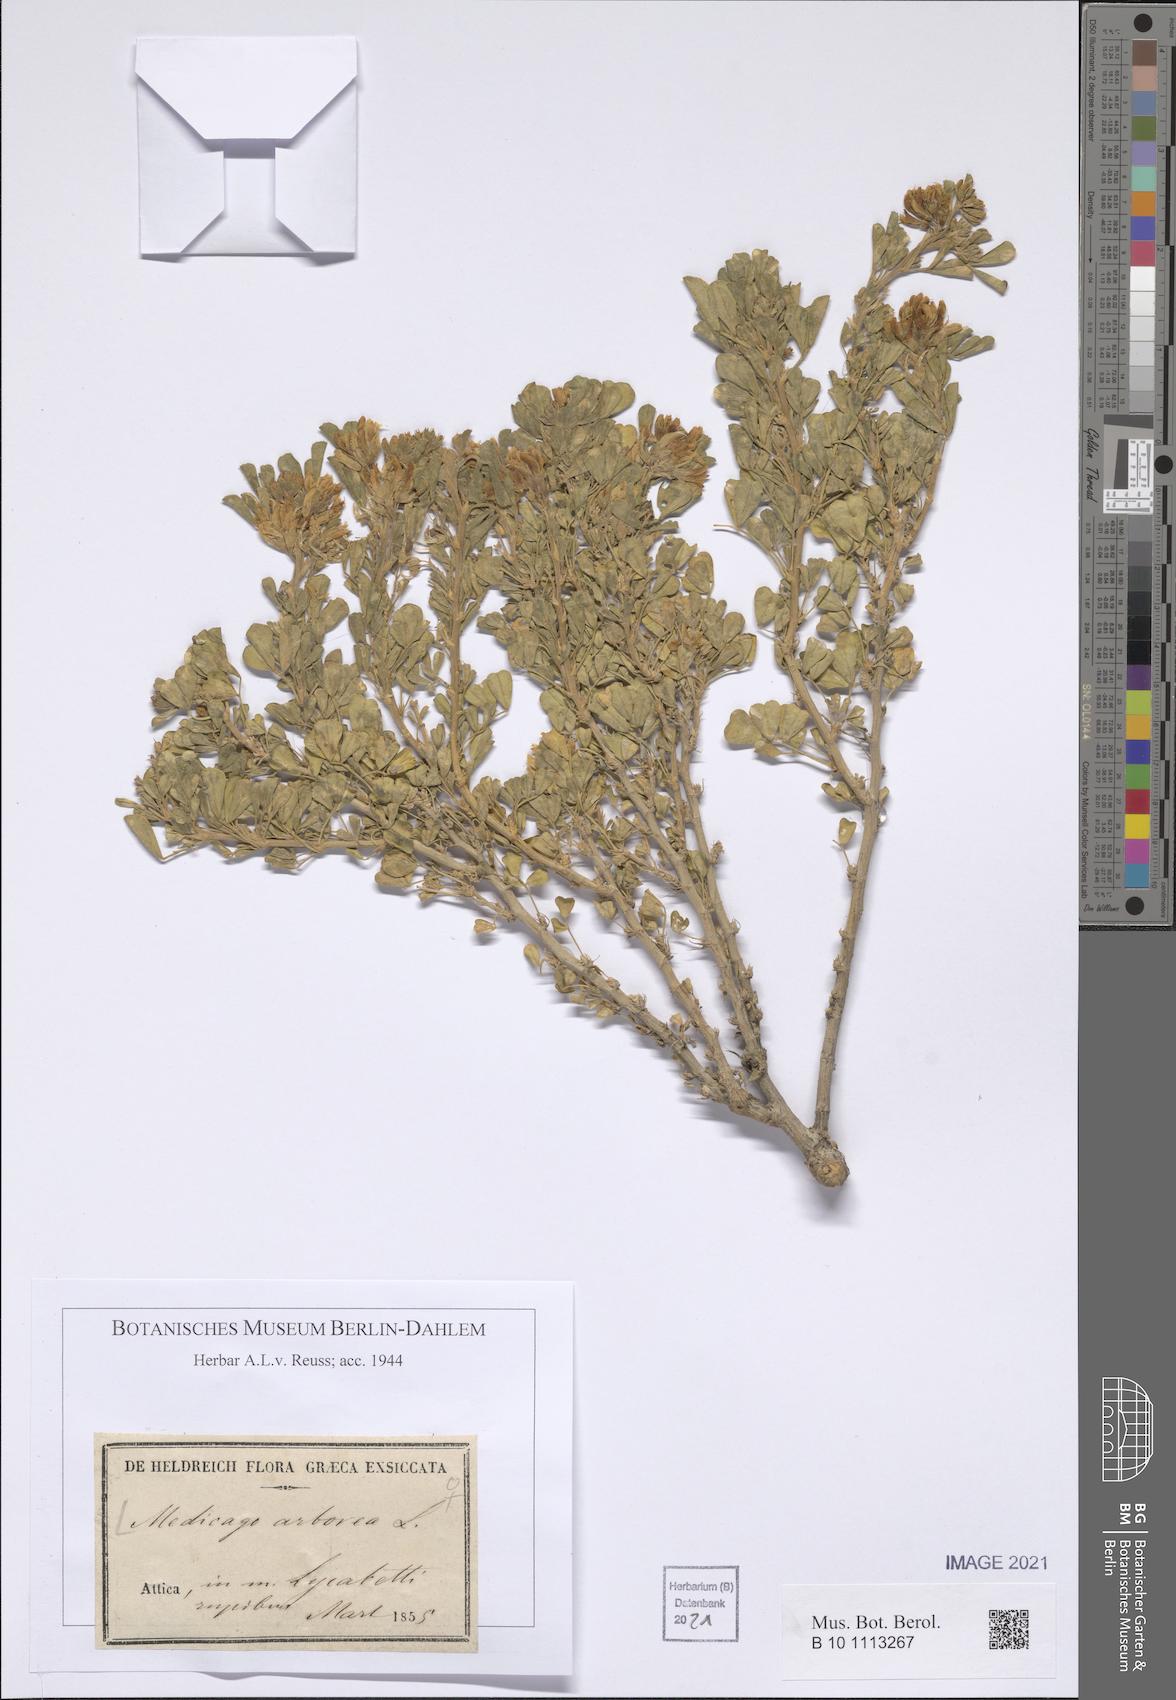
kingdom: Plantae
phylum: Tracheophyta
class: Magnoliopsida
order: Fabales
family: Fabaceae
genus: Medicago
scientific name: Medicago arborea
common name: Moon trefoil
